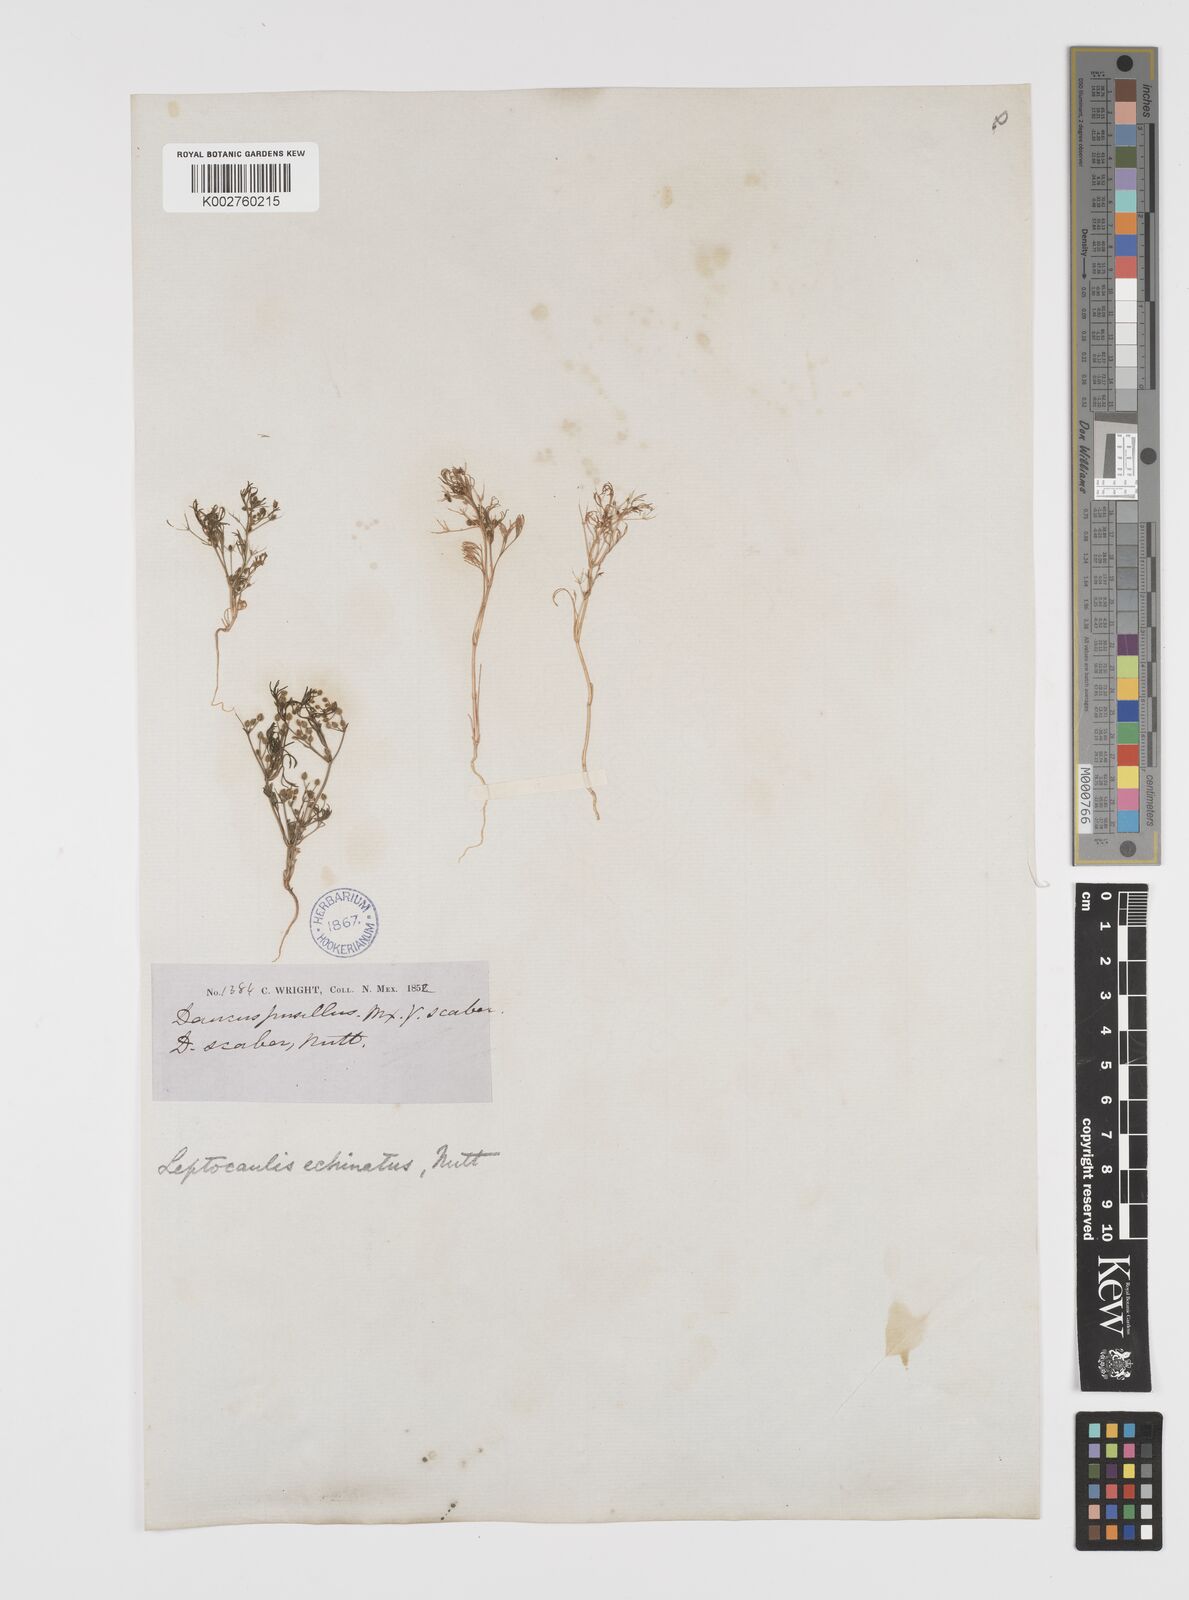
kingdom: Plantae
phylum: Tracheophyta
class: Magnoliopsida
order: Apiales
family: Apiaceae
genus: Spermolepis
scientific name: Spermolepis echinata
